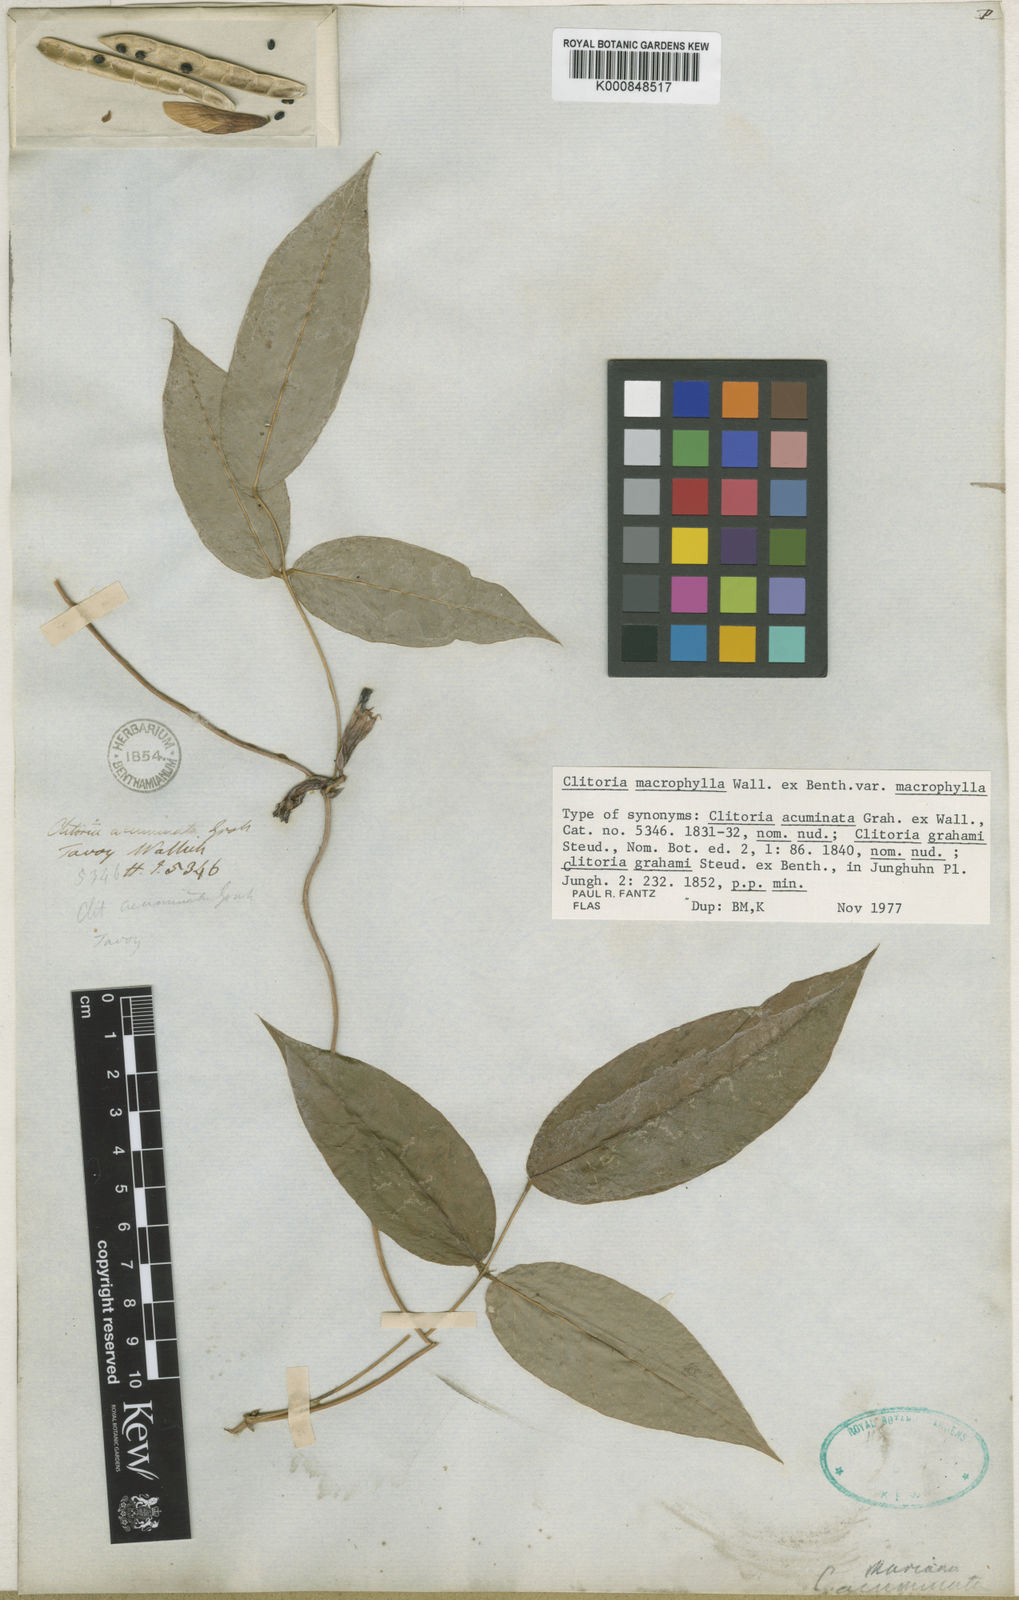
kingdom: Plantae
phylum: Tracheophyta
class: Magnoliopsida
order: Fabales
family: Fabaceae
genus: Clitoria
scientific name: Clitoria macrophylla
